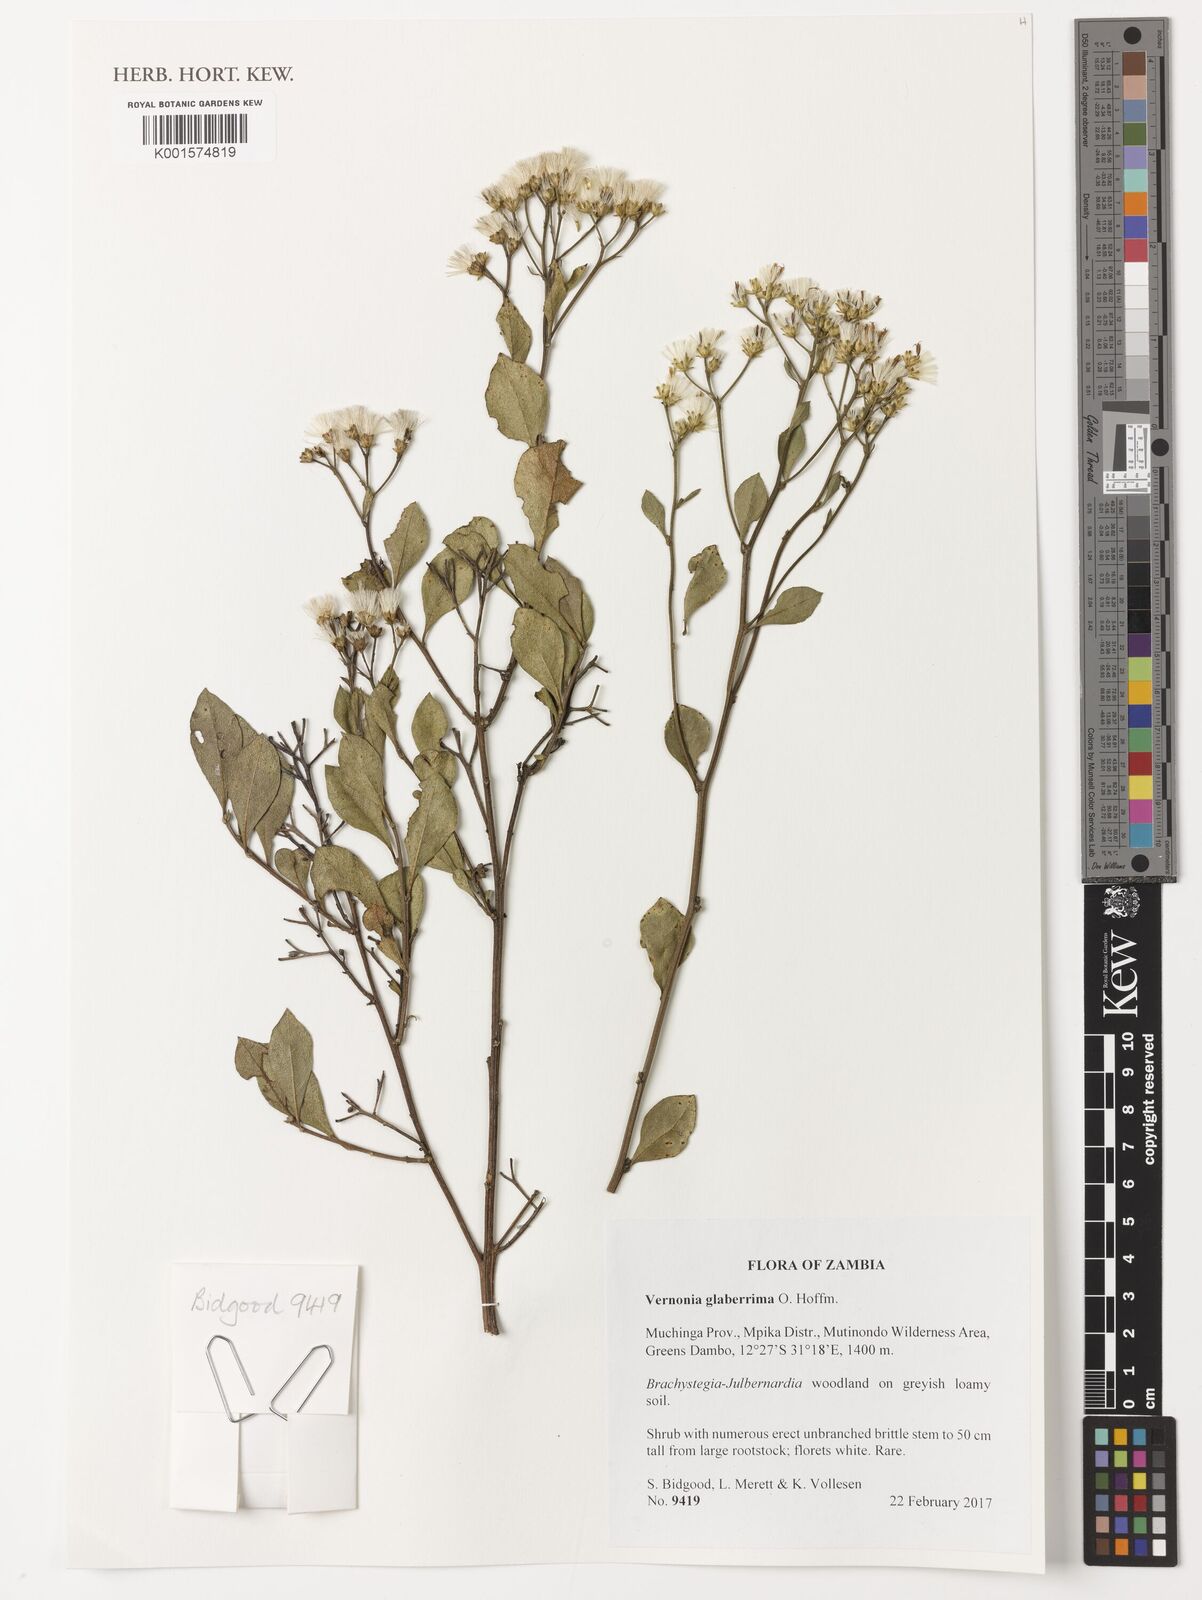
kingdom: Plantae
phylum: Tracheophyta
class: Magnoliopsida
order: Asterales
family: Asteraceae
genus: Gymnanthemum
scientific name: Gymnanthemum glaberrimum
